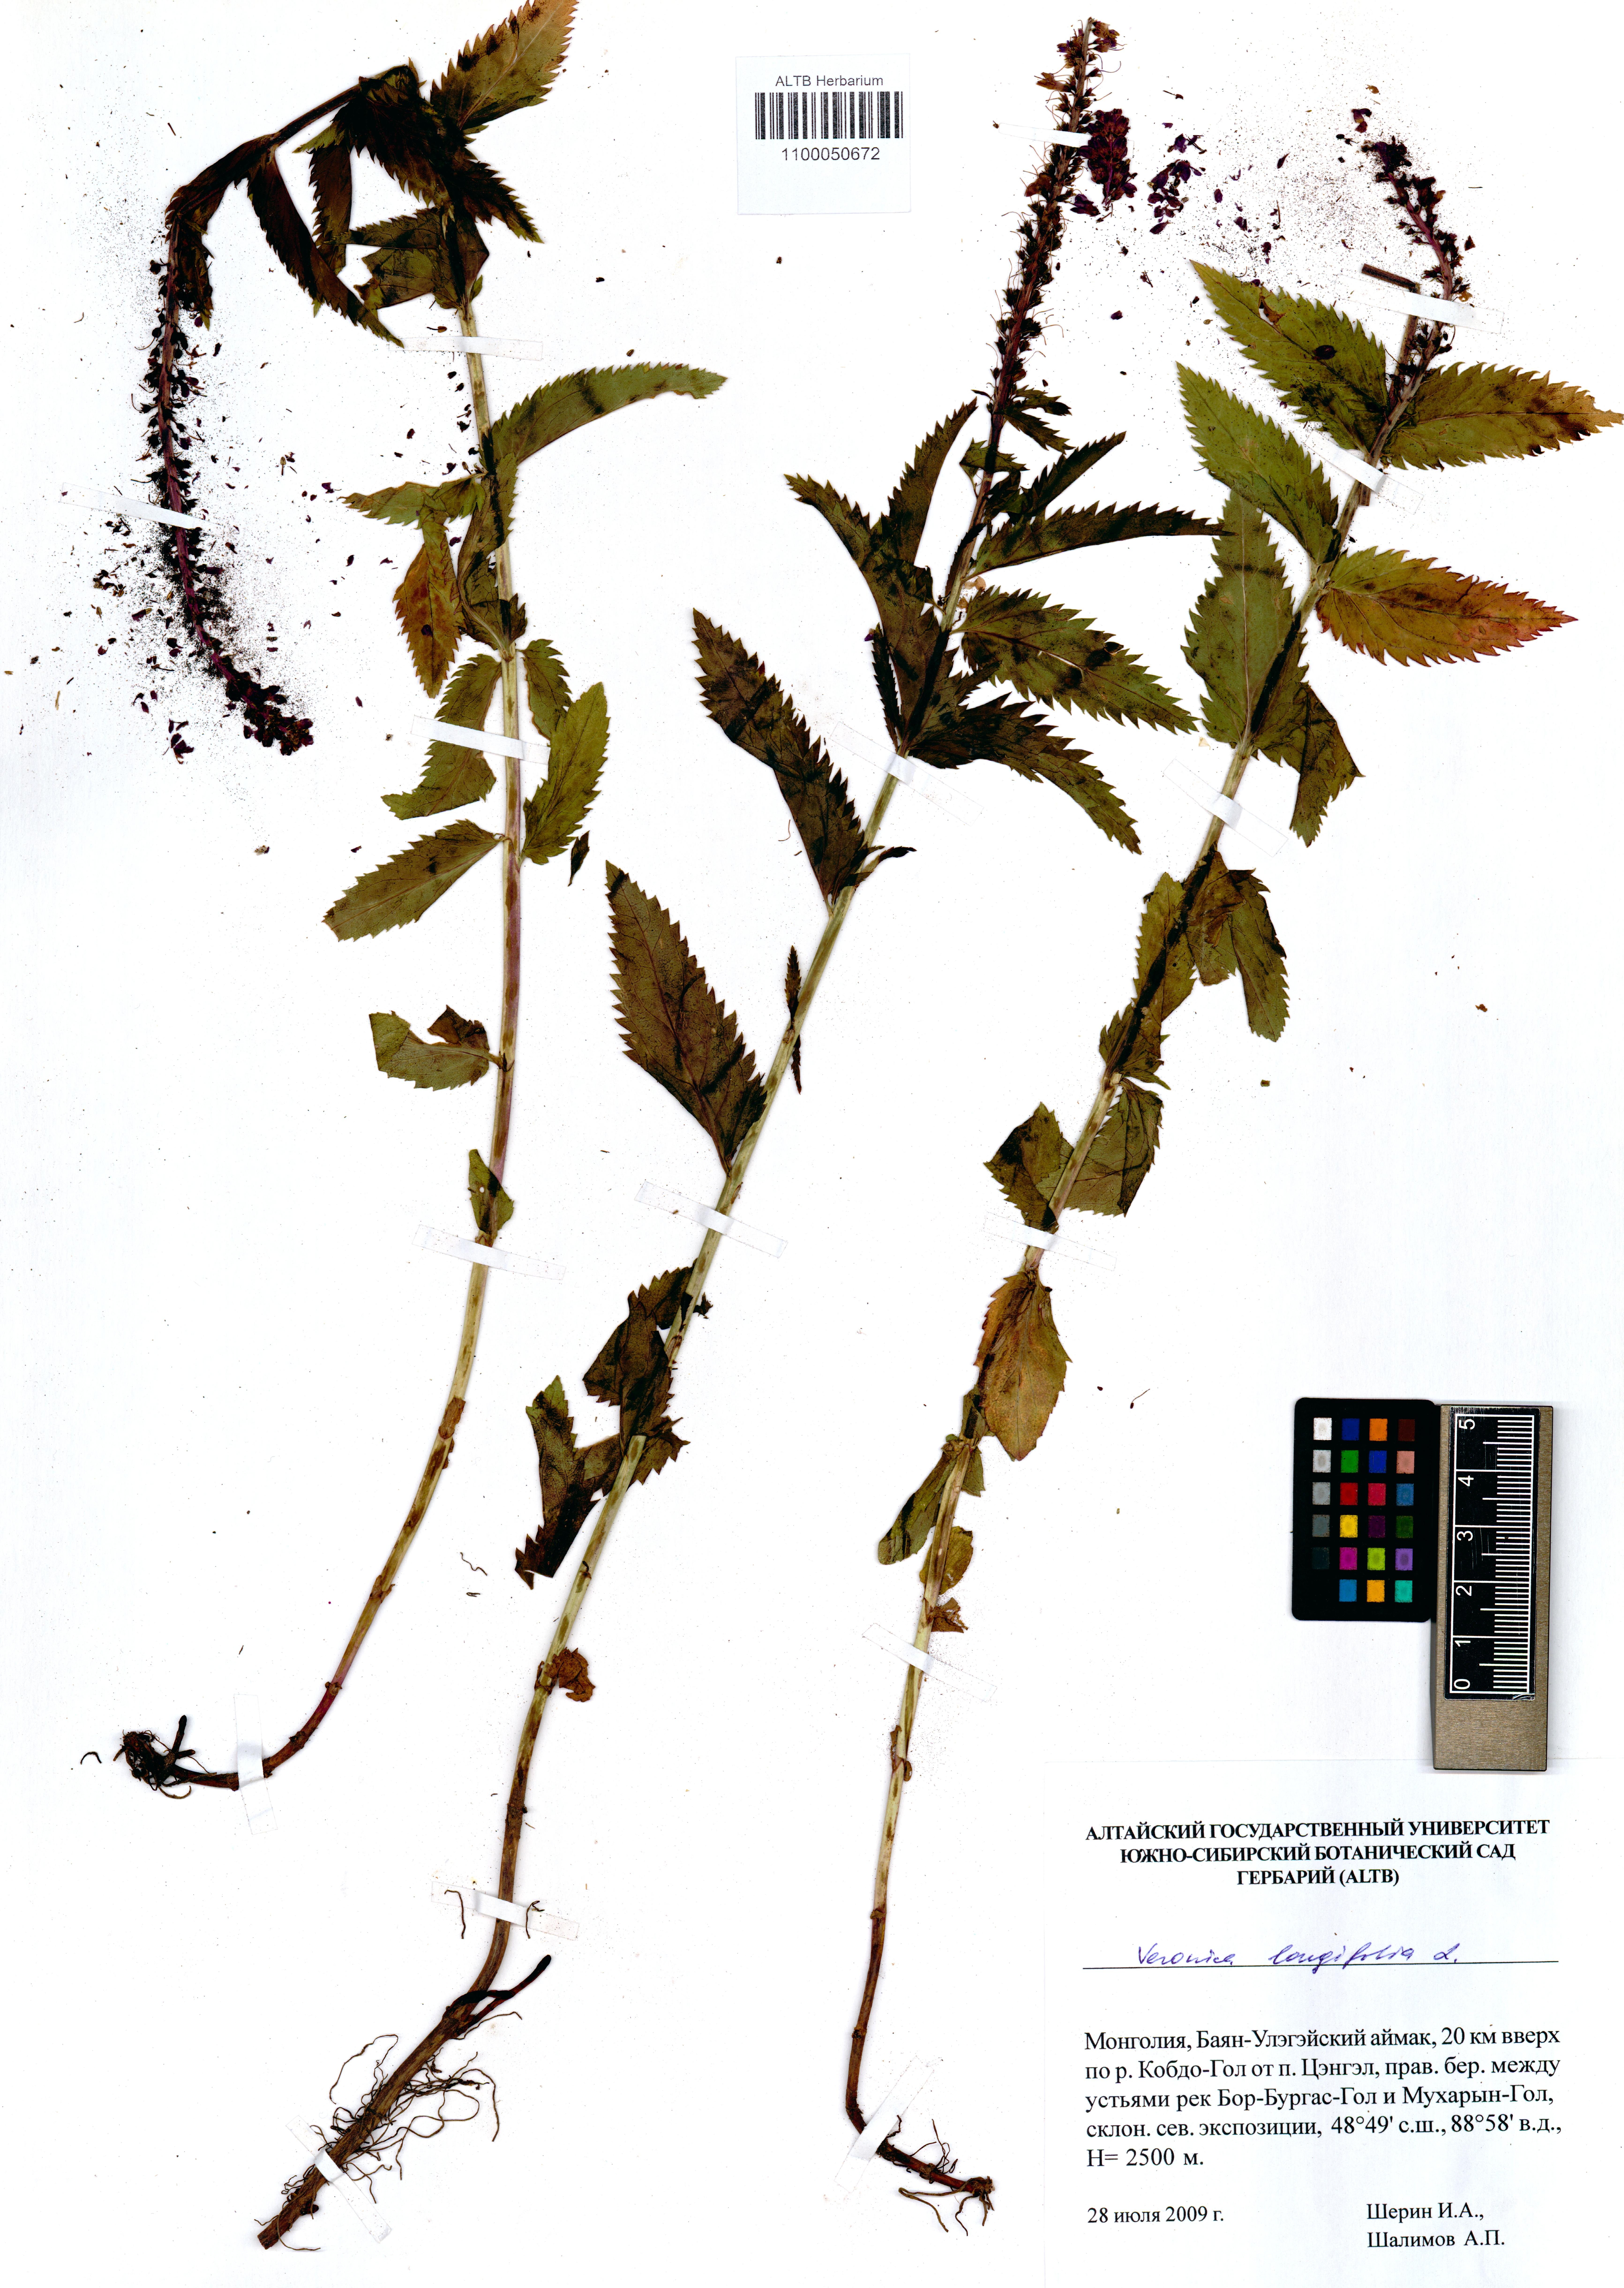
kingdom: Plantae
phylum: Tracheophyta
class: Magnoliopsida
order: Lamiales
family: Plantaginaceae
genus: Veronica
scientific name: Veronica longifolia
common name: Garden speedwell
